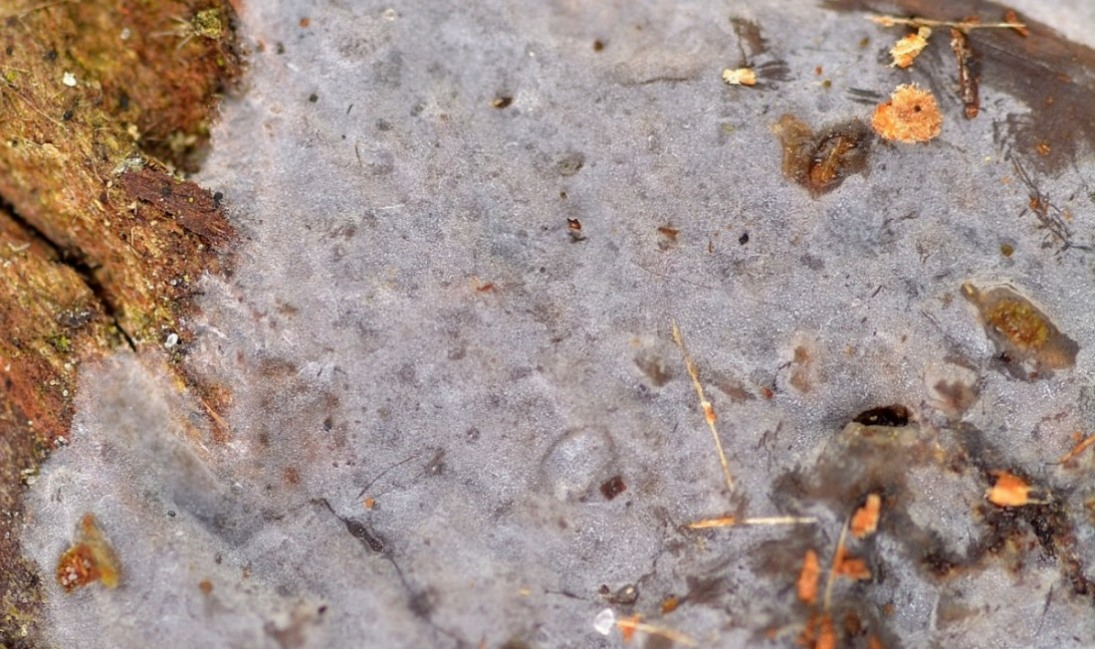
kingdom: Fungi
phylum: Basidiomycota
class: Agaricomycetes
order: Sebacinales
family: Sebacinaceae
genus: Sebacina
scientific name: Sebacina grisea
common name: blågrå bævrehinde
